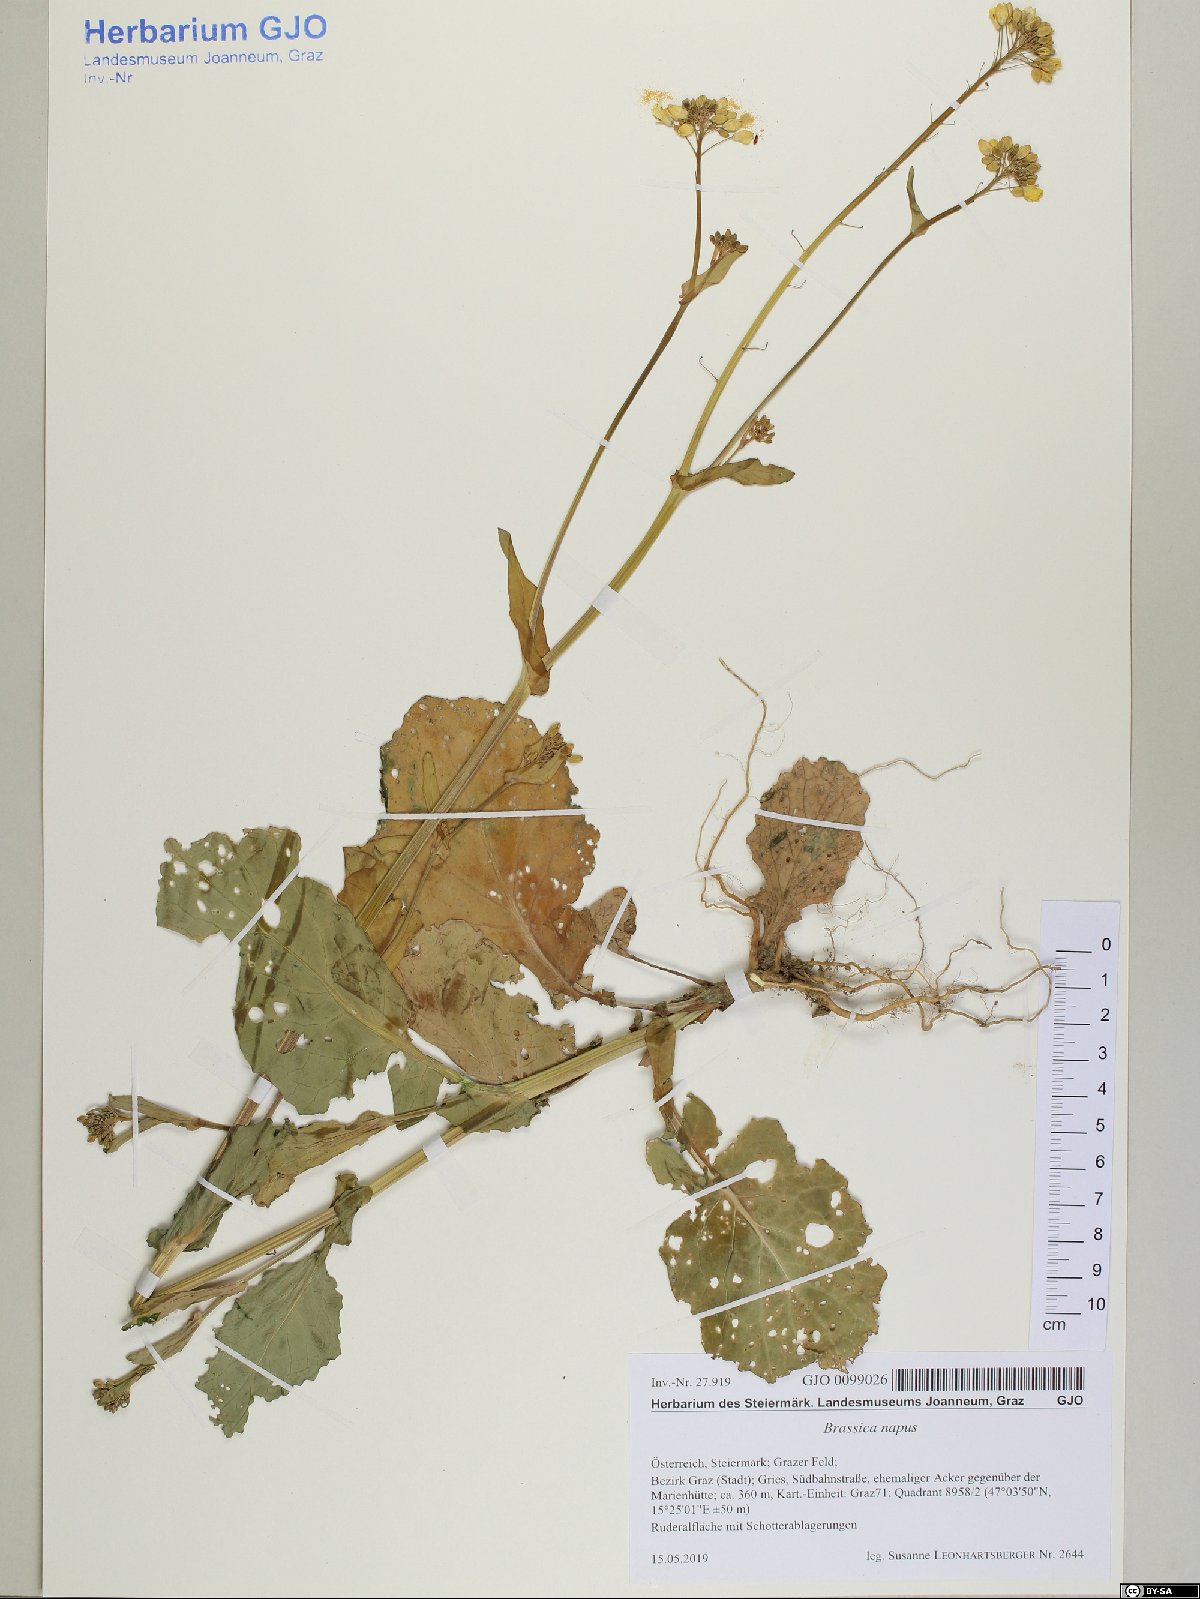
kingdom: Plantae
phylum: Tracheophyta
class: Magnoliopsida
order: Brassicales
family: Brassicaceae
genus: Brassica
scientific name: Brassica napus
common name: Rape
